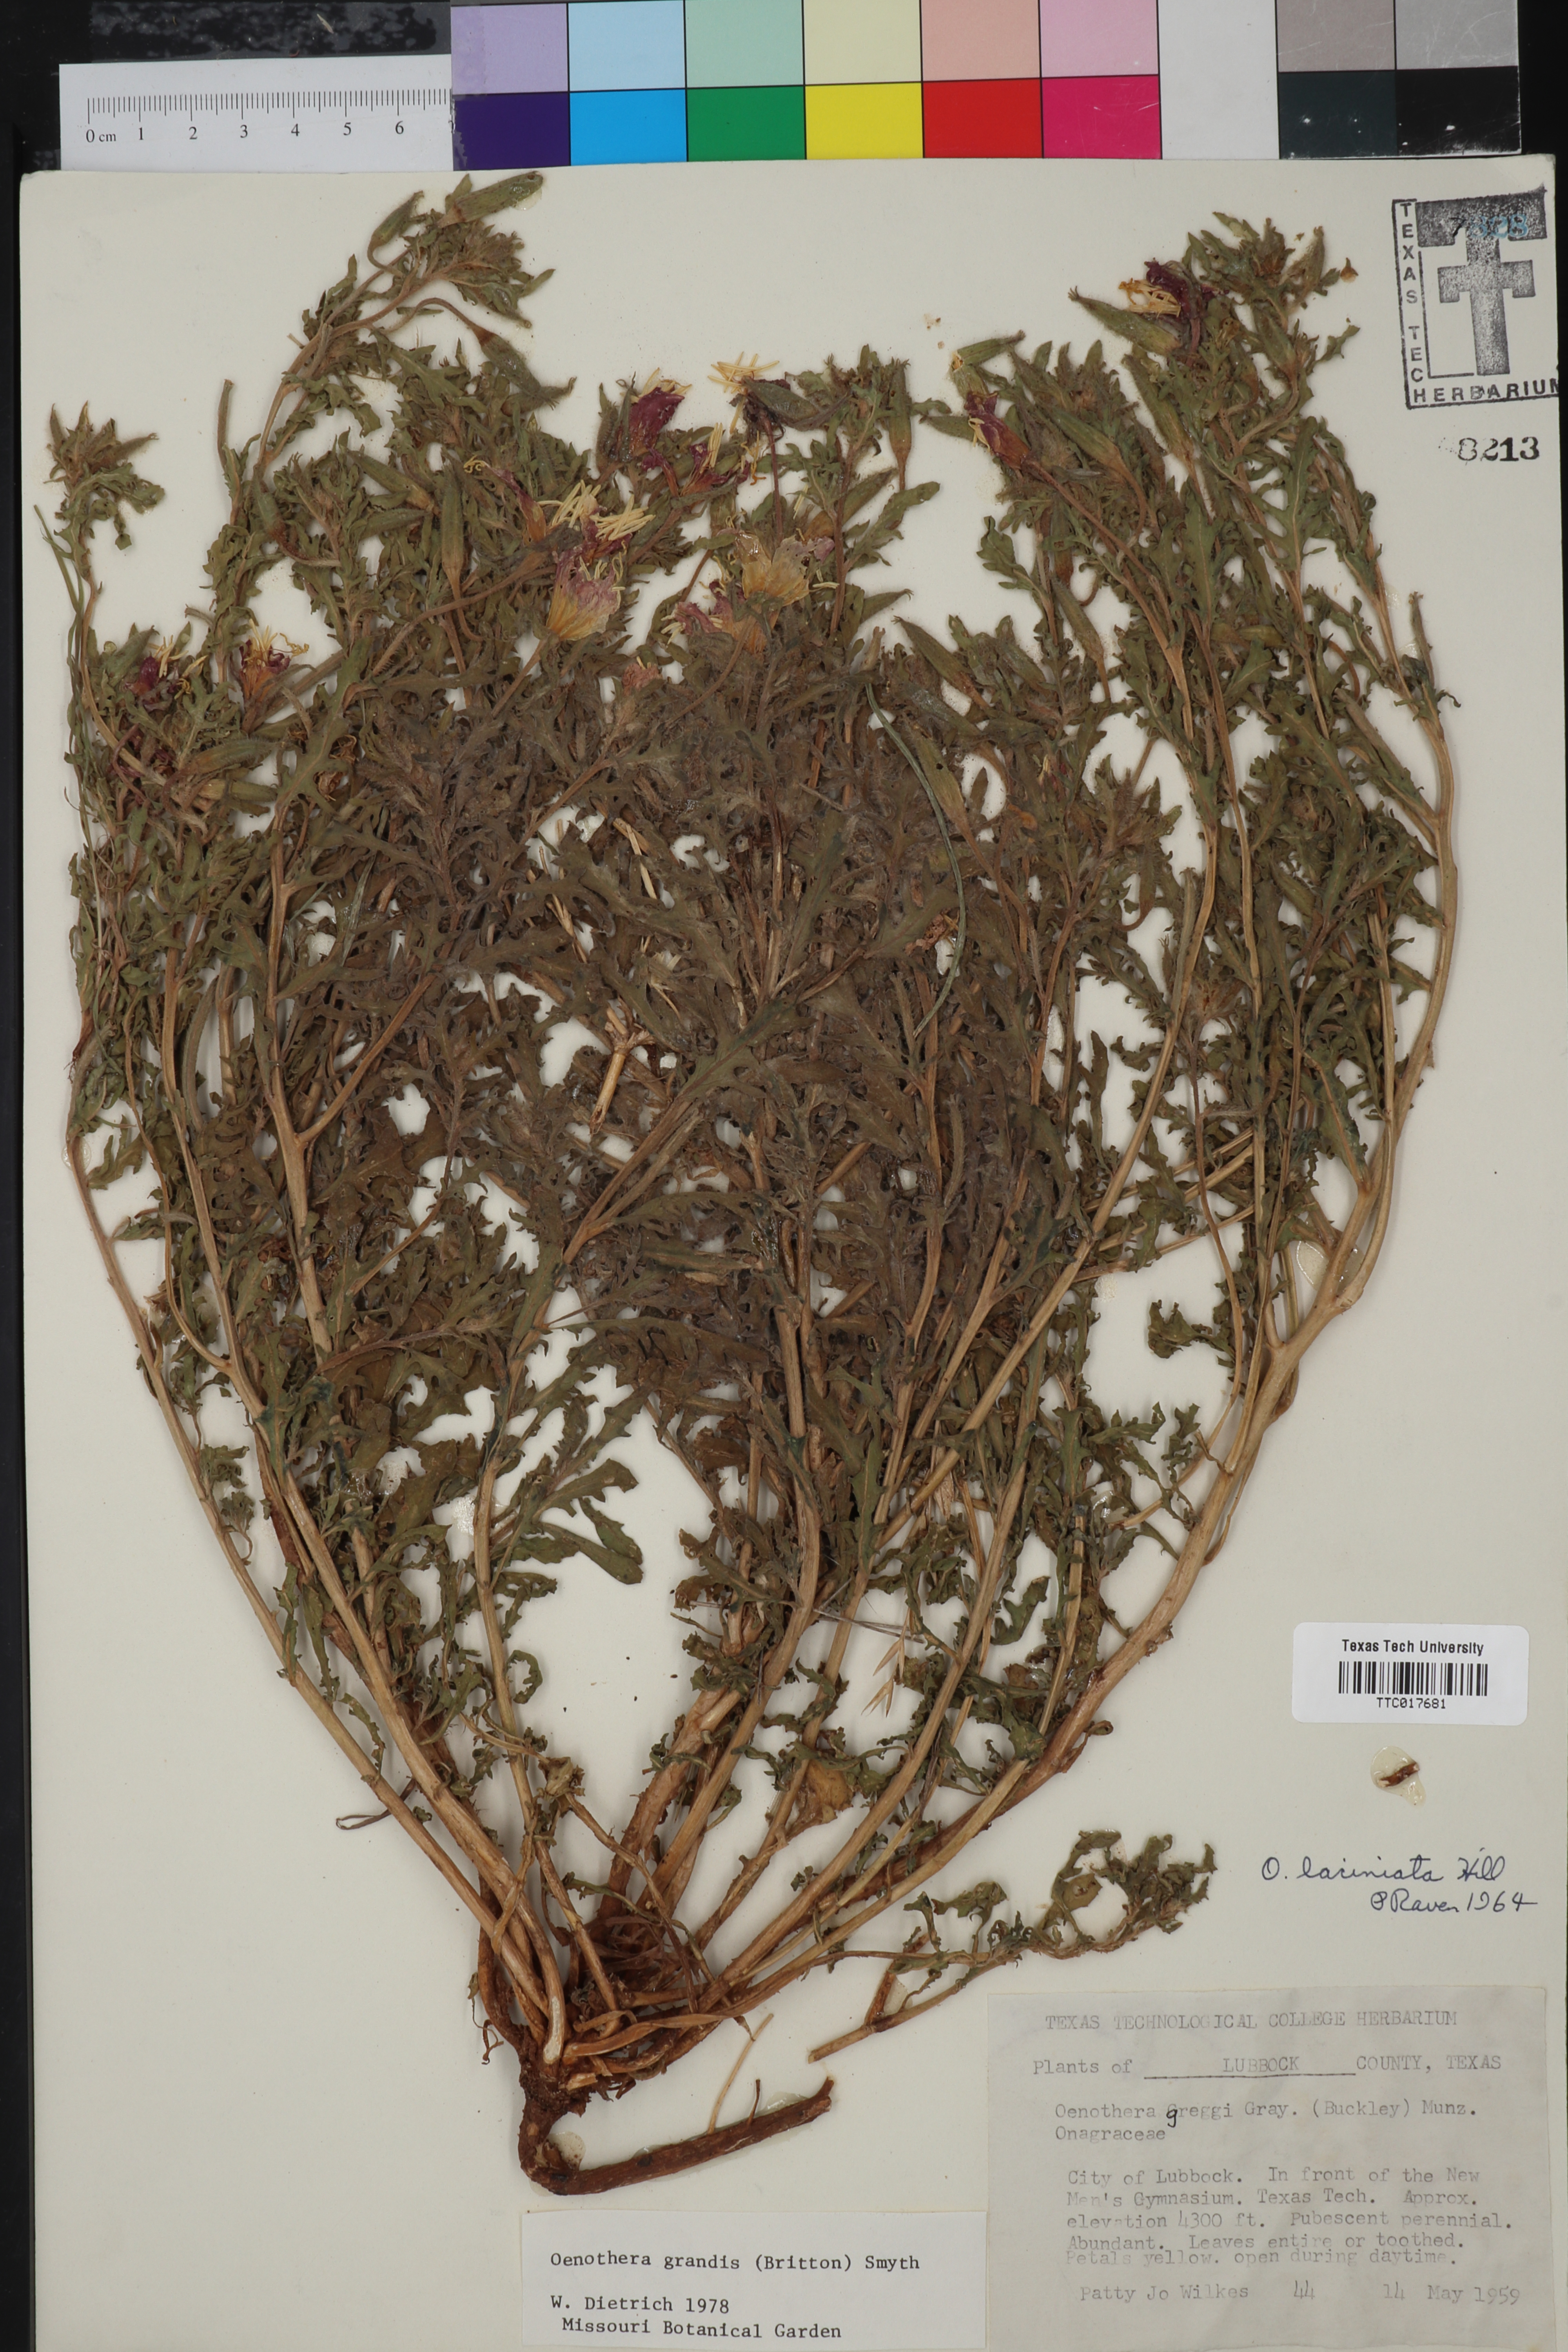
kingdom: Plantae
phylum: Tracheophyta
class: Magnoliopsida
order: Myrtales
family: Onagraceae
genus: Oenothera
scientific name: Oenothera grandis
